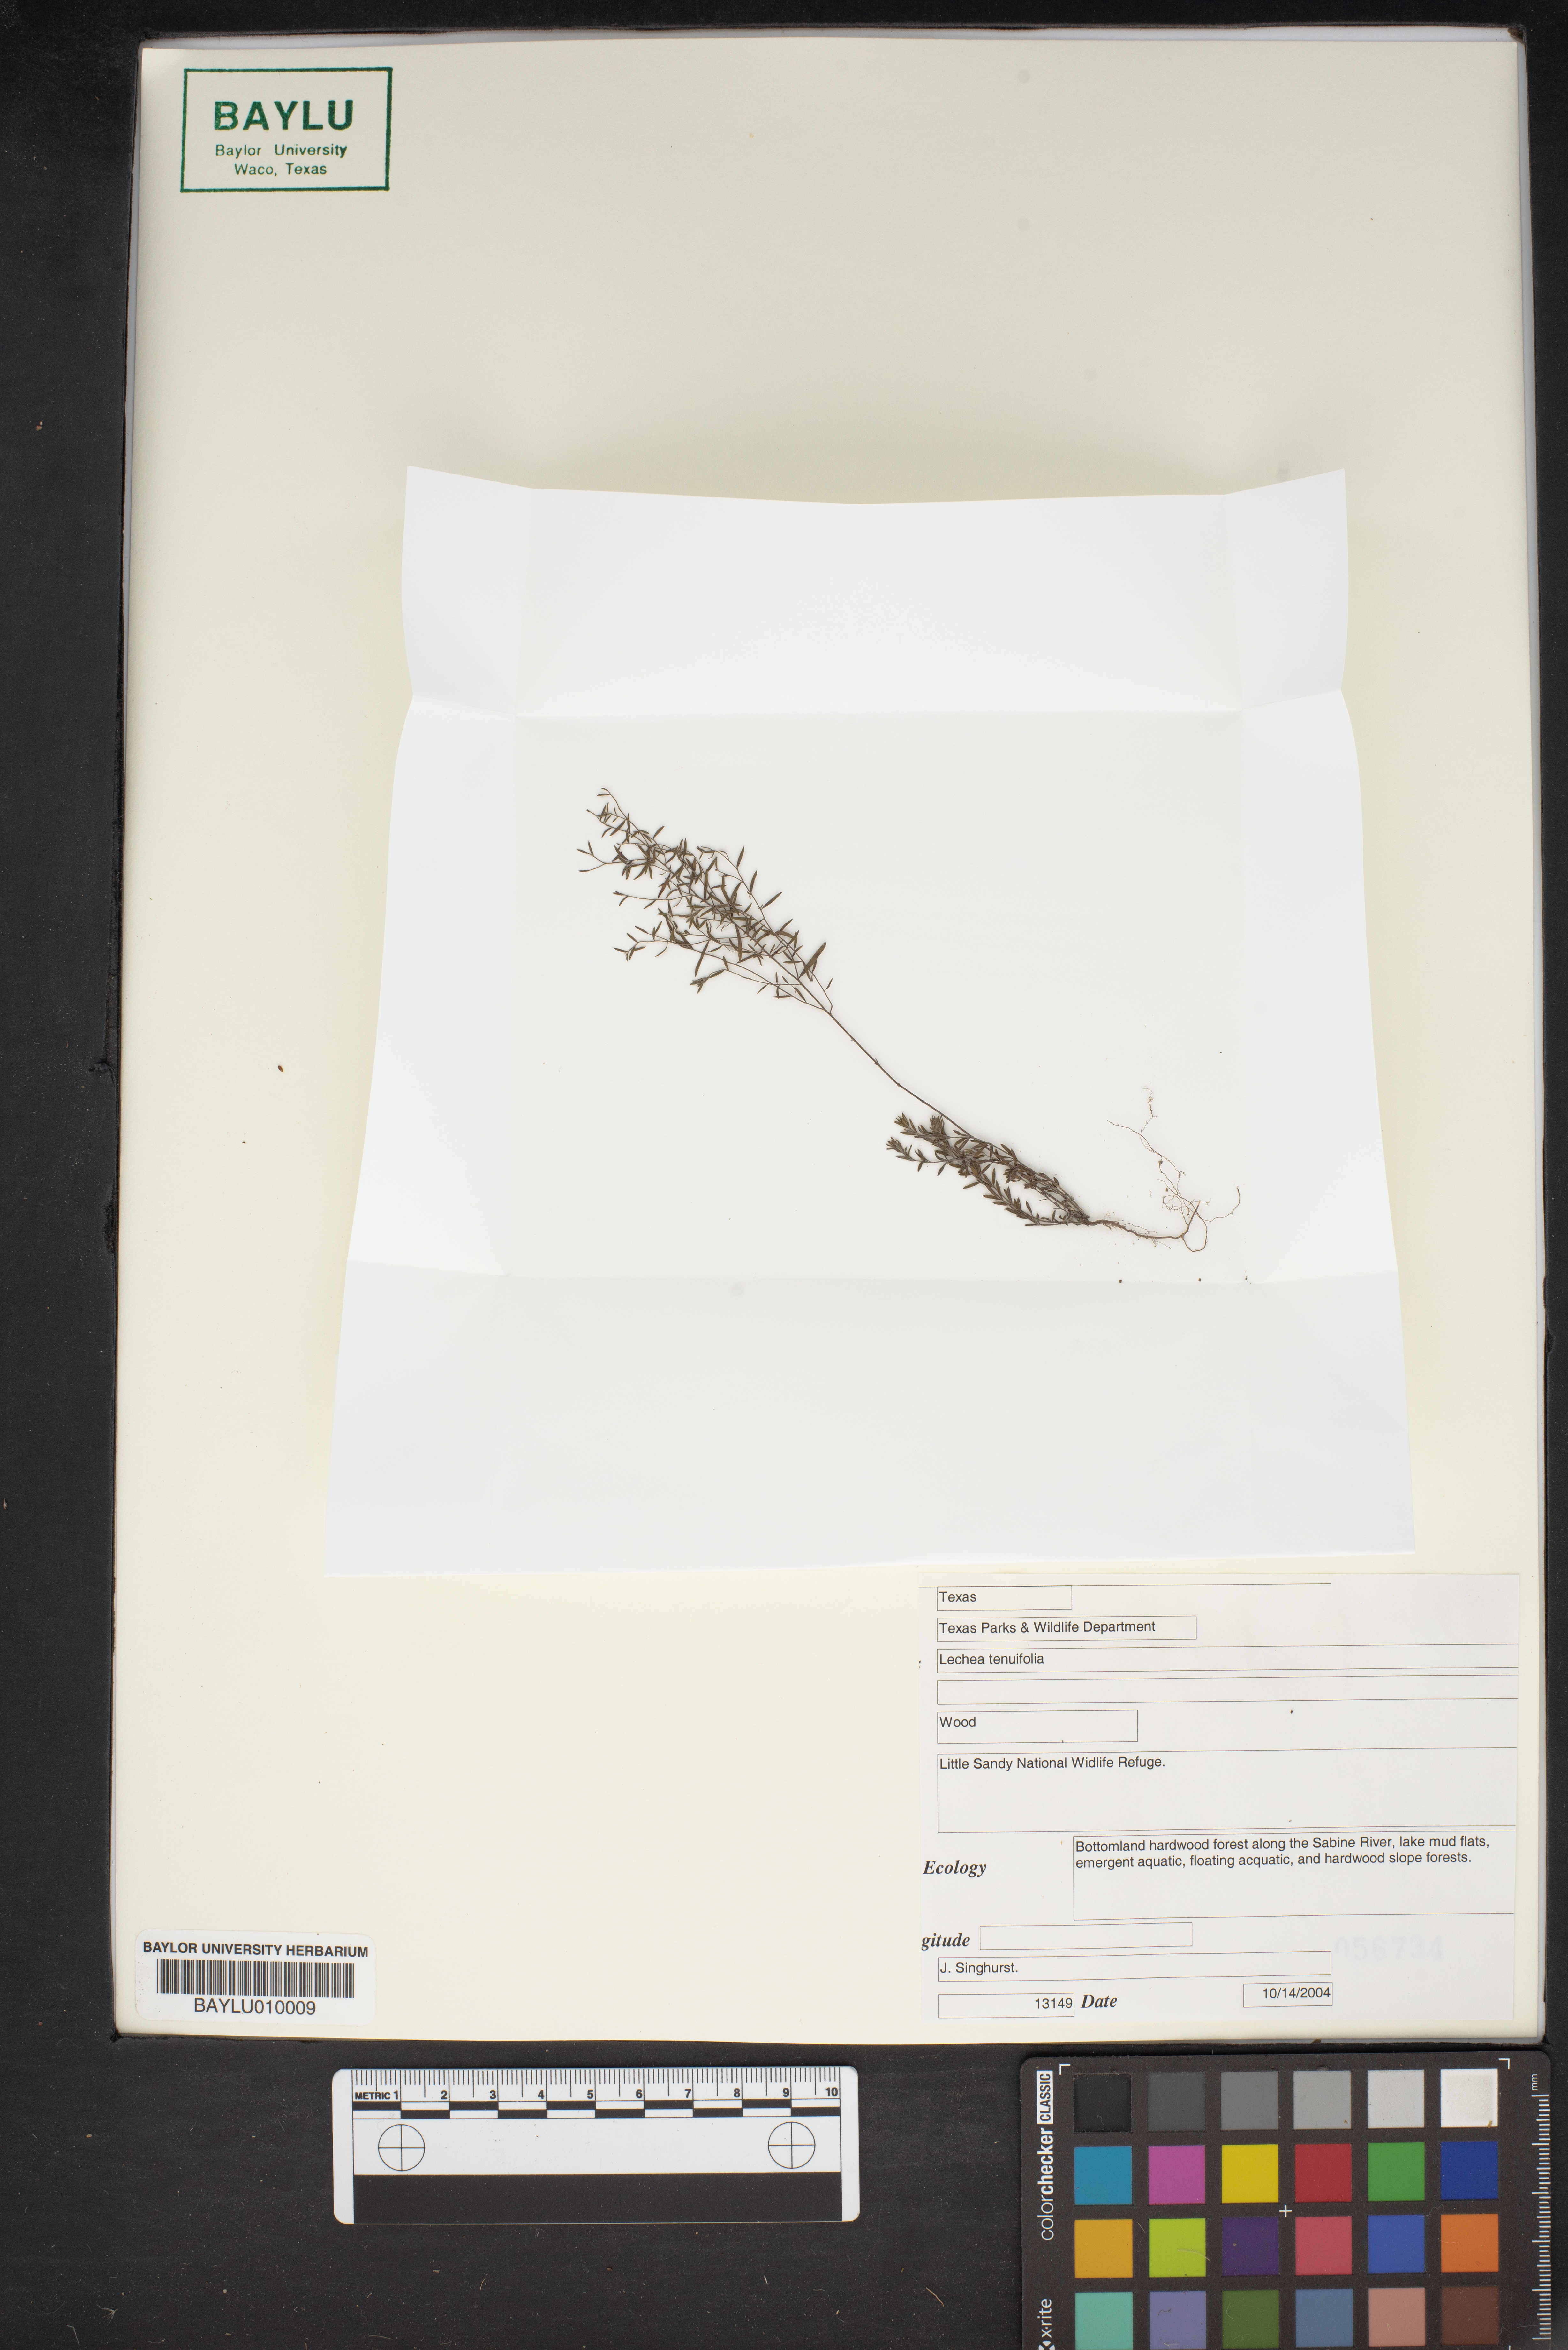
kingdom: Plantae
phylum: Tracheophyta
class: Magnoliopsida
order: Malvales
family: Cistaceae
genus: Lechea
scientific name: Lechea tenuifolia
